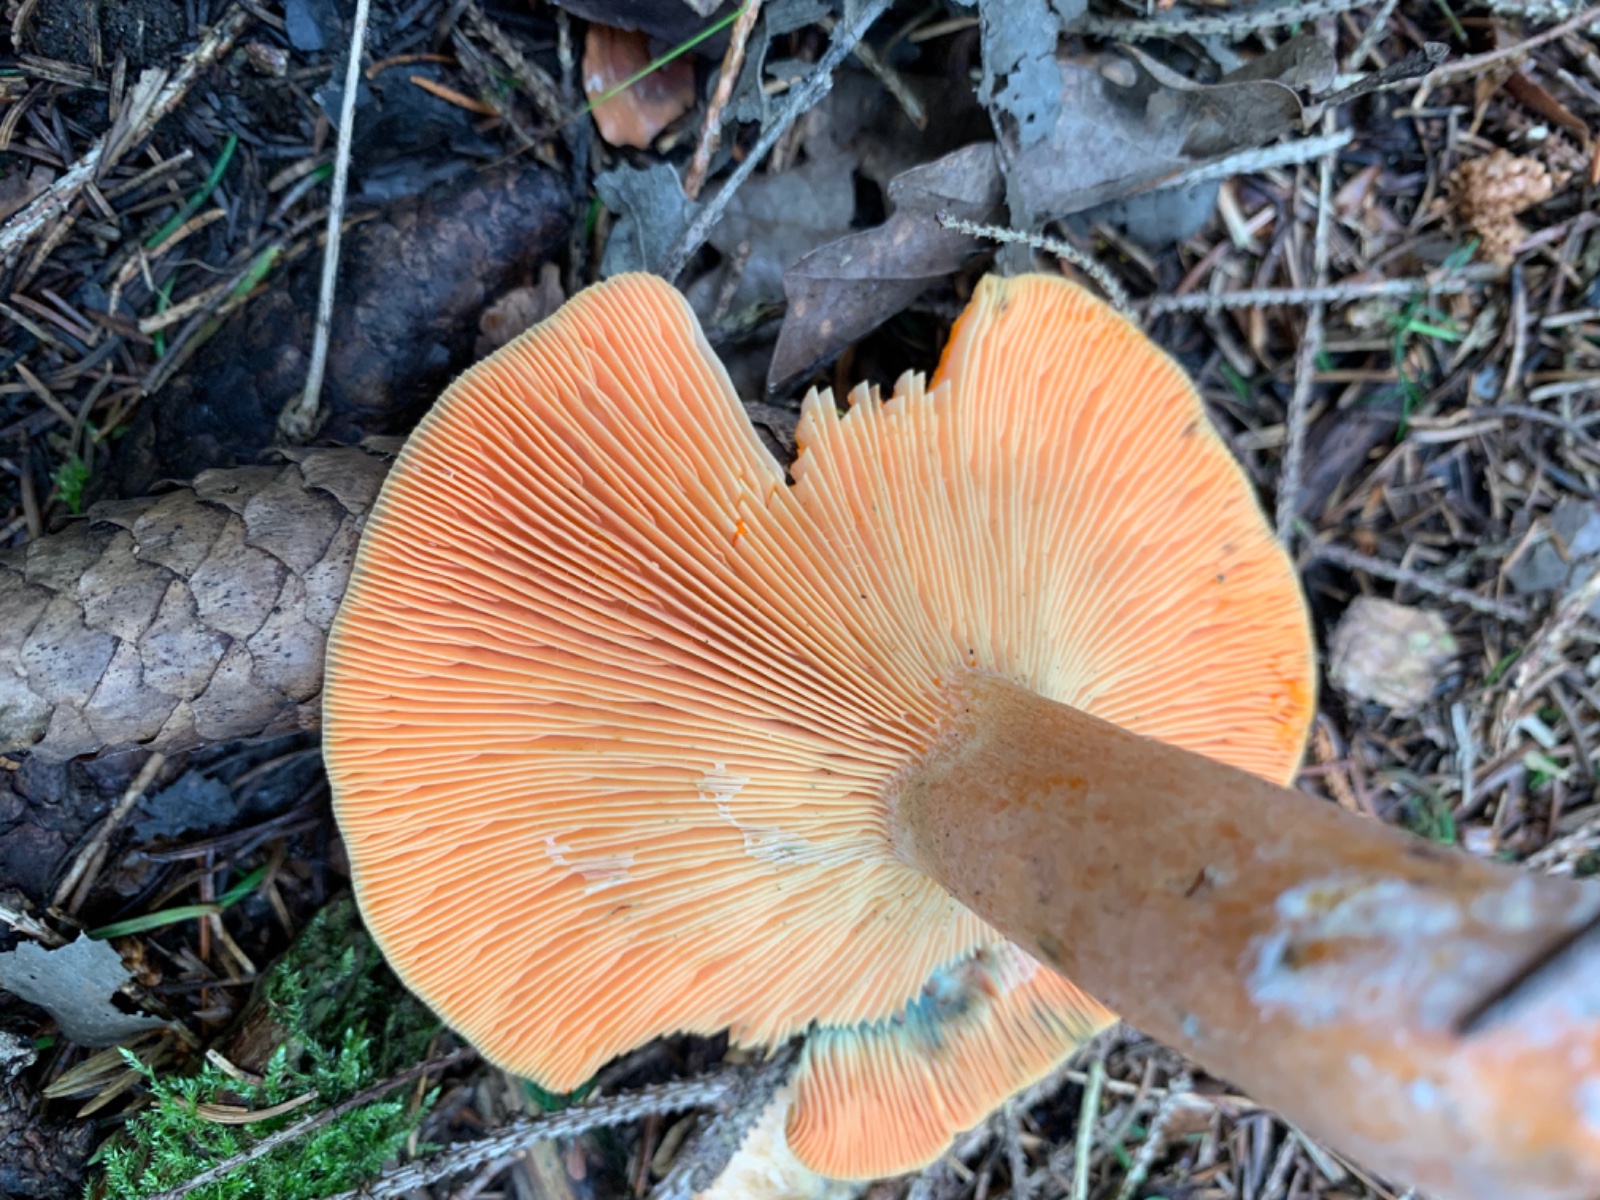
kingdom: Fungi
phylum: Basidiomycota
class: Agaricomycetes
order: Russulales
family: Russulaceae
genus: Lactarius
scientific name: Lactarius deterrimus
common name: gran-mælkehat
